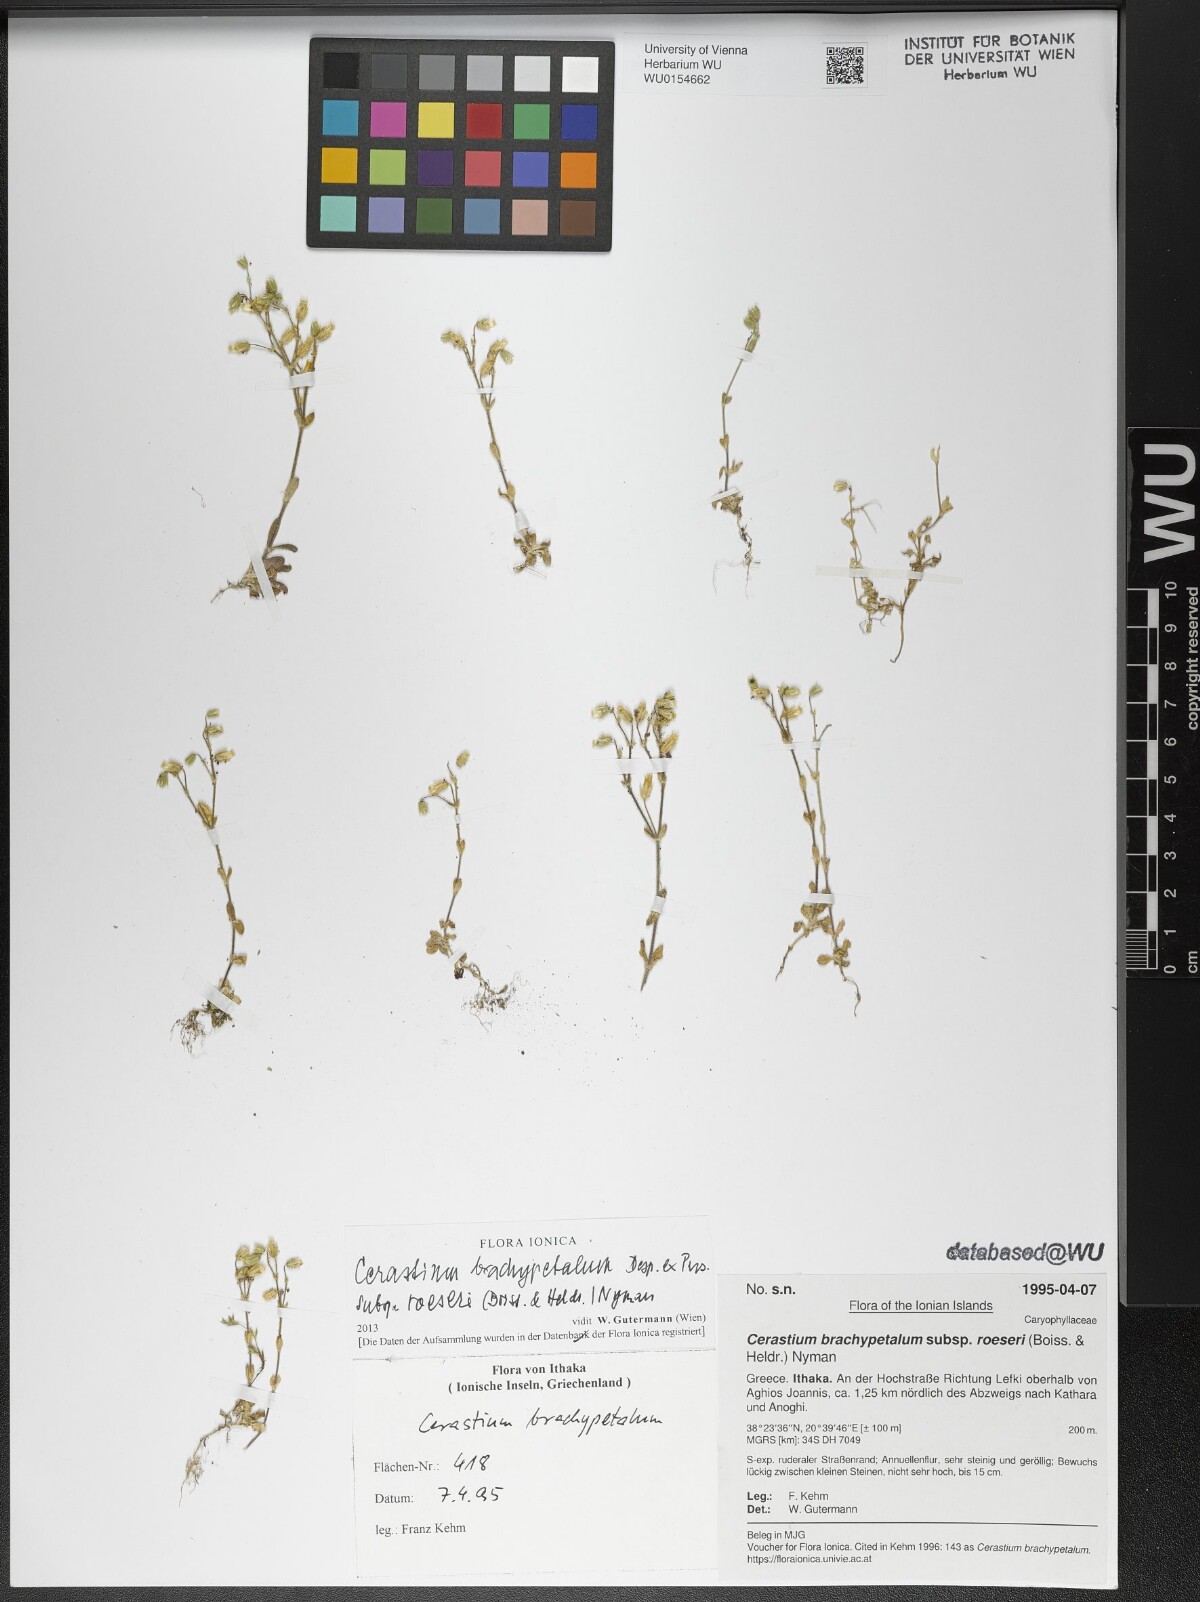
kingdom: Plantae
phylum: Tracheophyta
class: Magnoliopsida
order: Caryophyllales
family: Caryophyllaceae
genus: Cerastium
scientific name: Cerastium brachypetalum
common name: Grey mouse-ear
